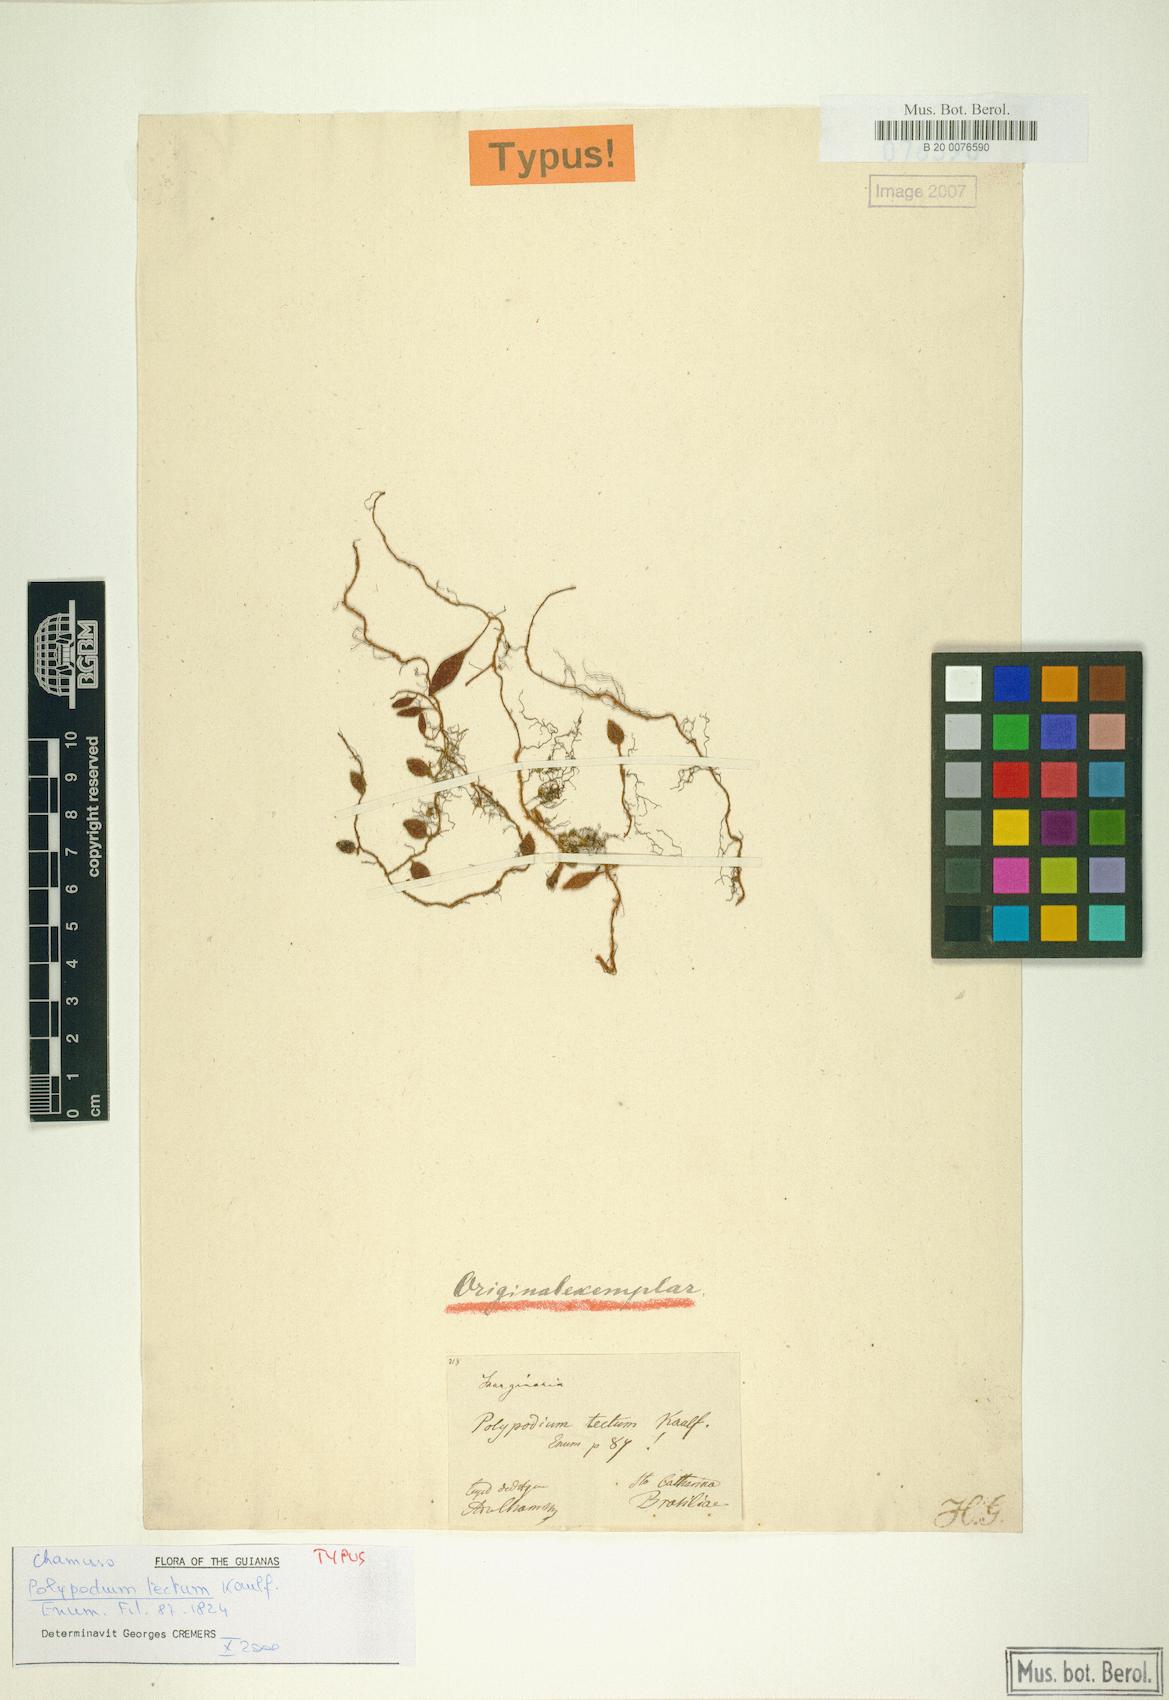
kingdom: Plantae
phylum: Tracheophyta
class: Polypodiopsida
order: Polypodiales
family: Polypodiaceae
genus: Microgramma
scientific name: Microgramma tecta
